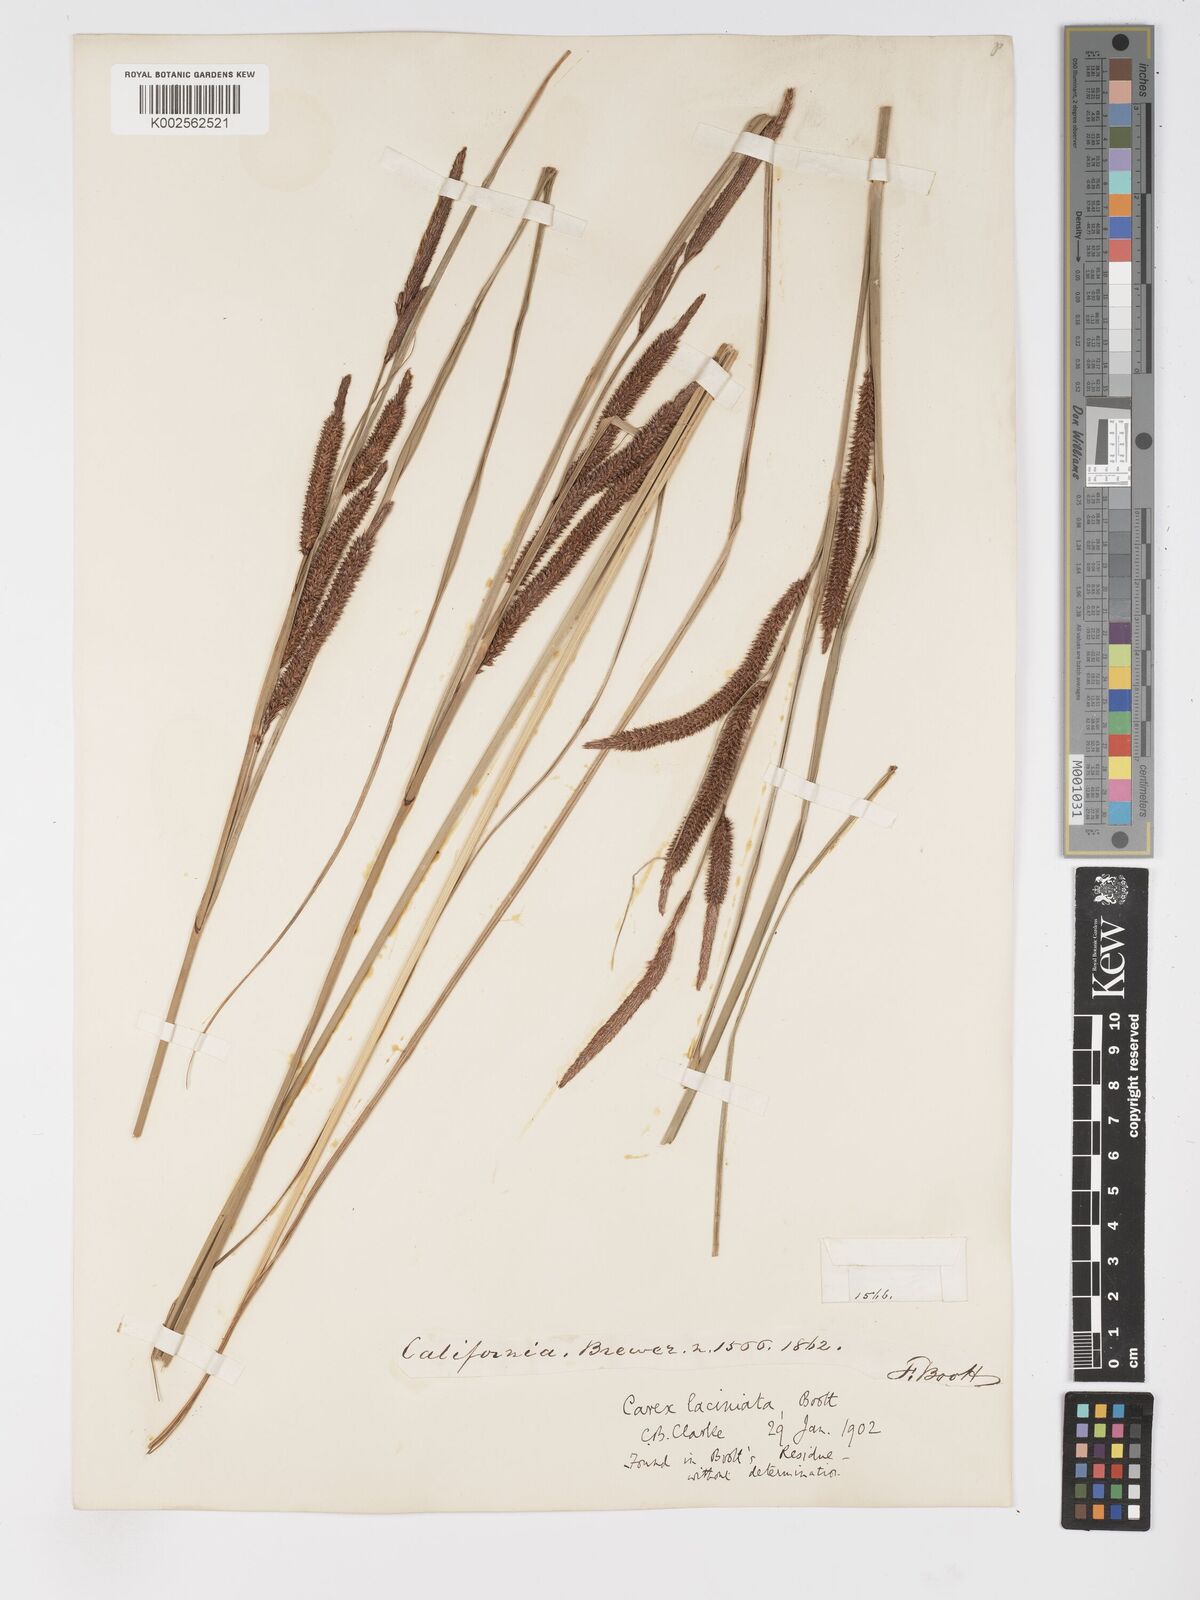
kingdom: Plantae
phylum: Tracheophyta
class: Liliopsida
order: Poales
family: Cyperaceae
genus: Carex
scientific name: Carex barbarae
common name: Santa barbara sedge
